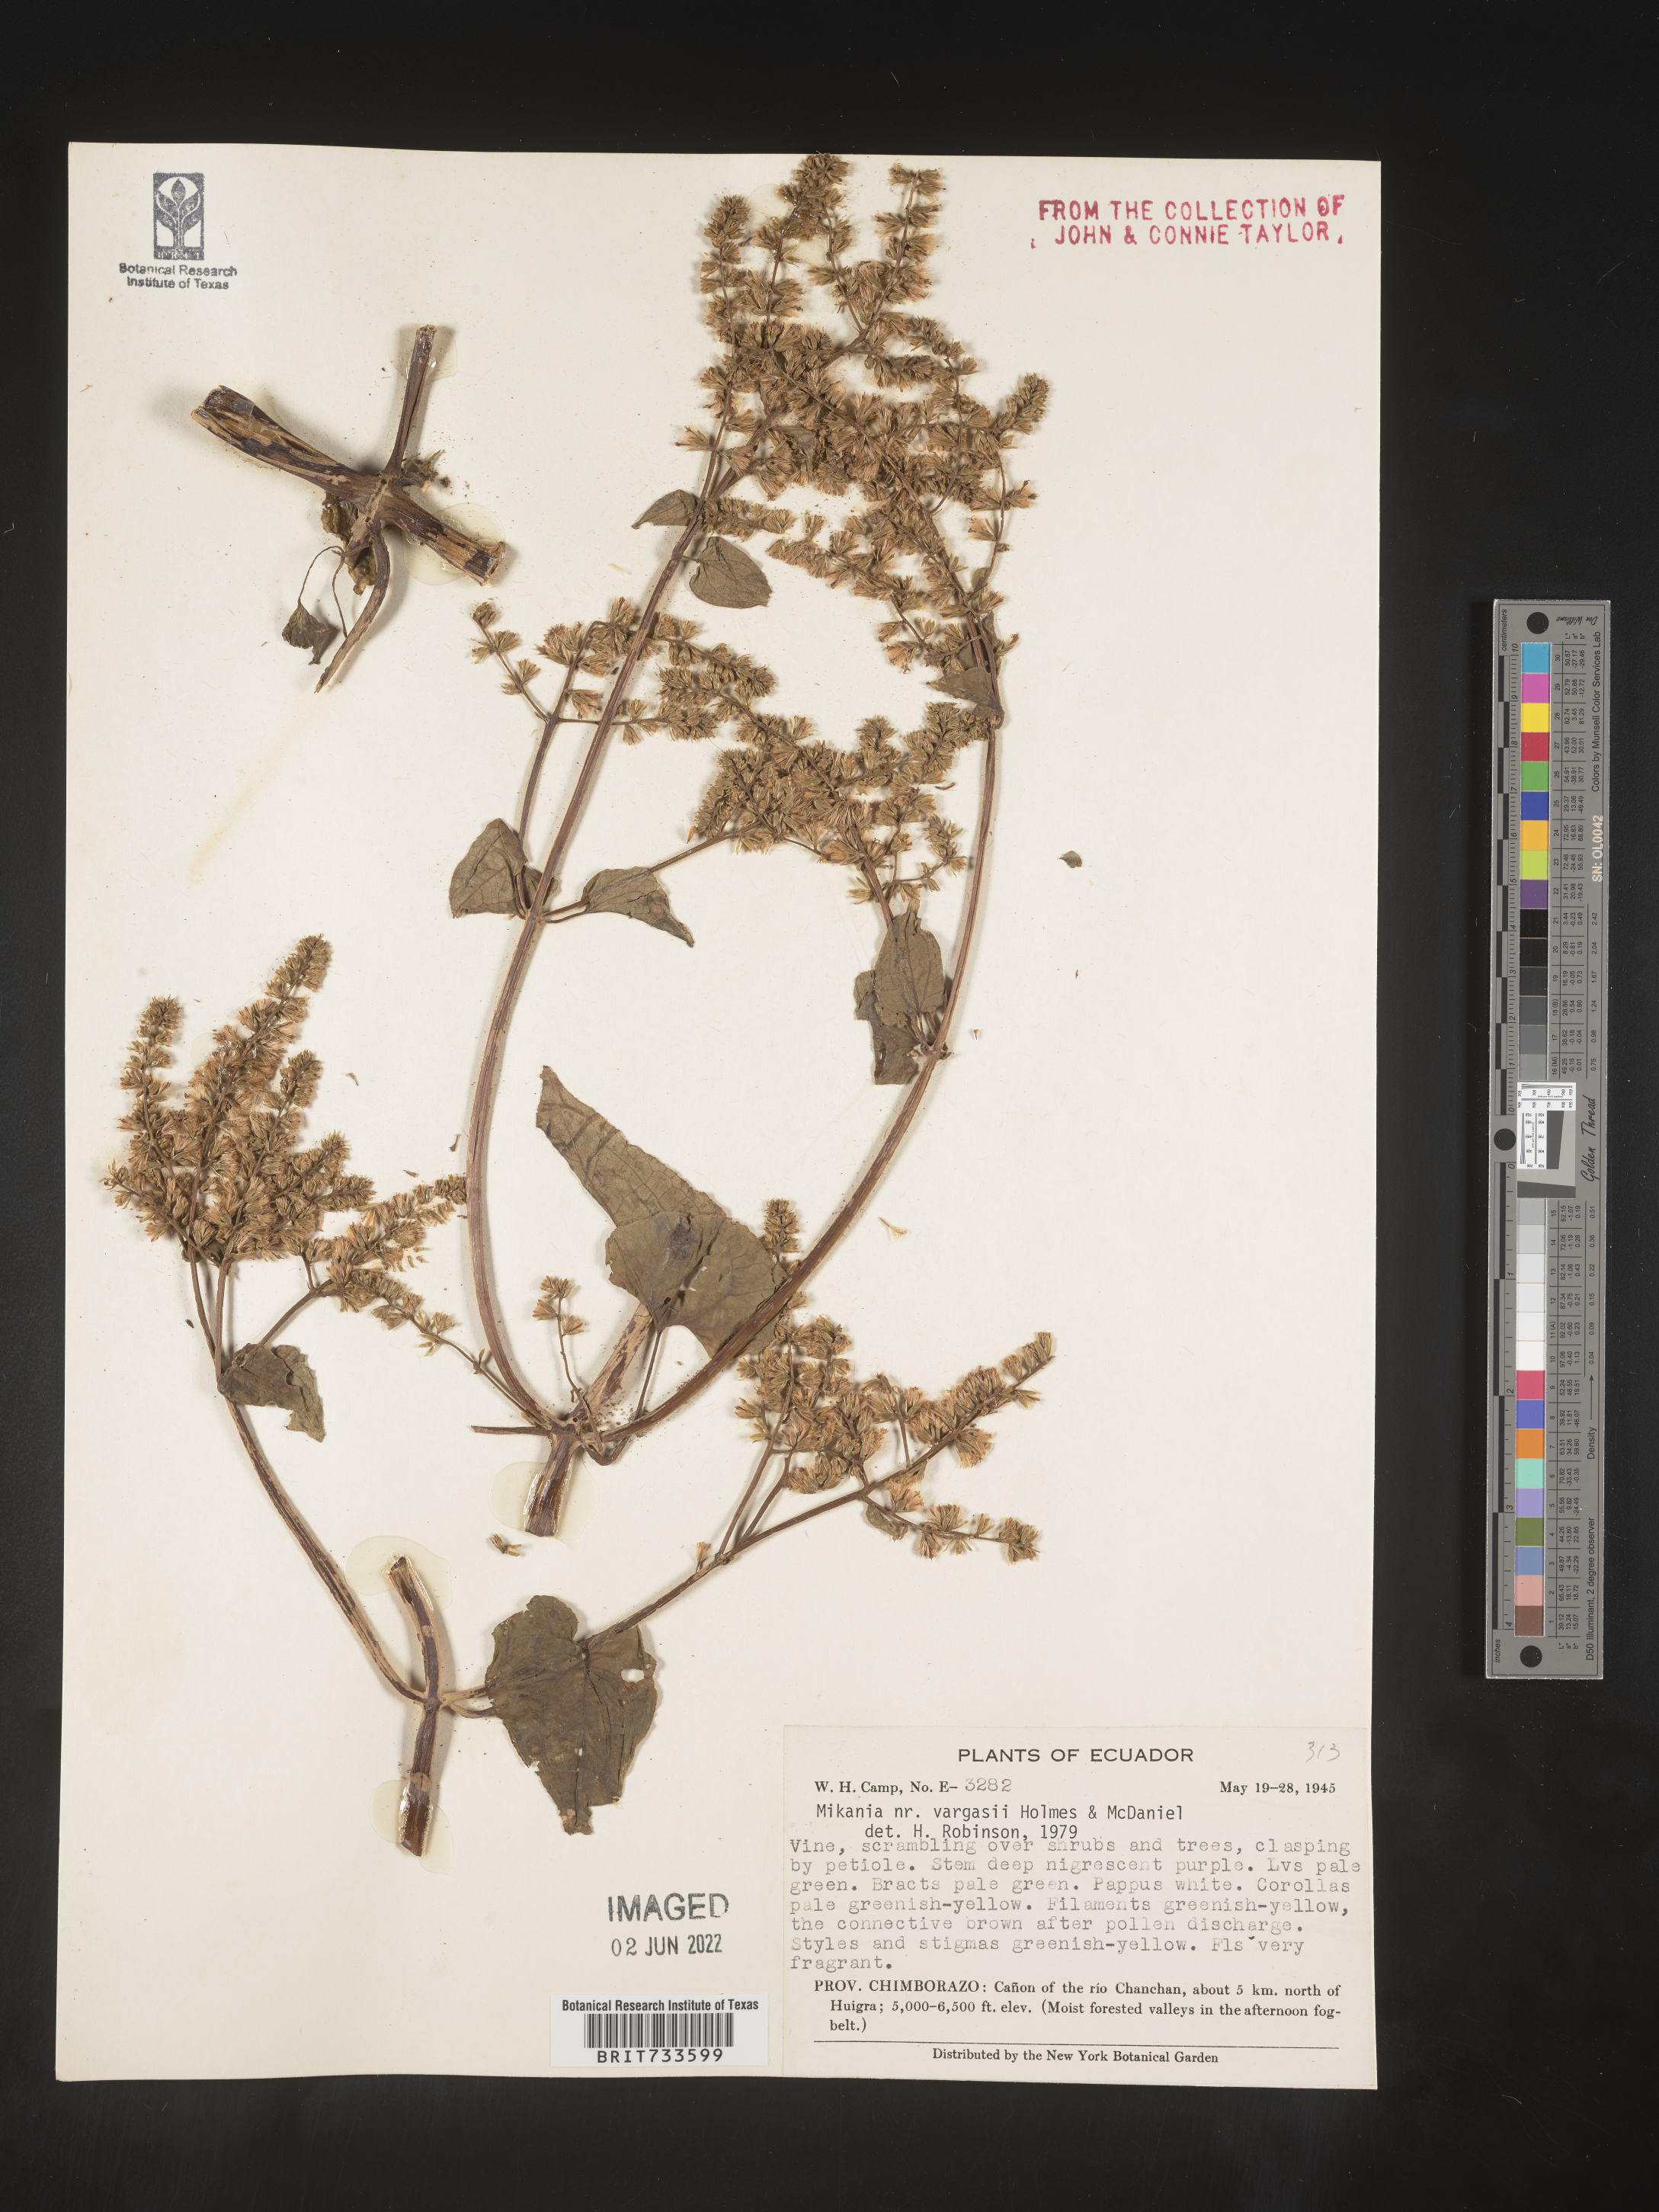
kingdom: Plantae
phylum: Tracheophyta
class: Magnoliopsida
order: Asterales
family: Asteraceae
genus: Mikania
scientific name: Mikania
